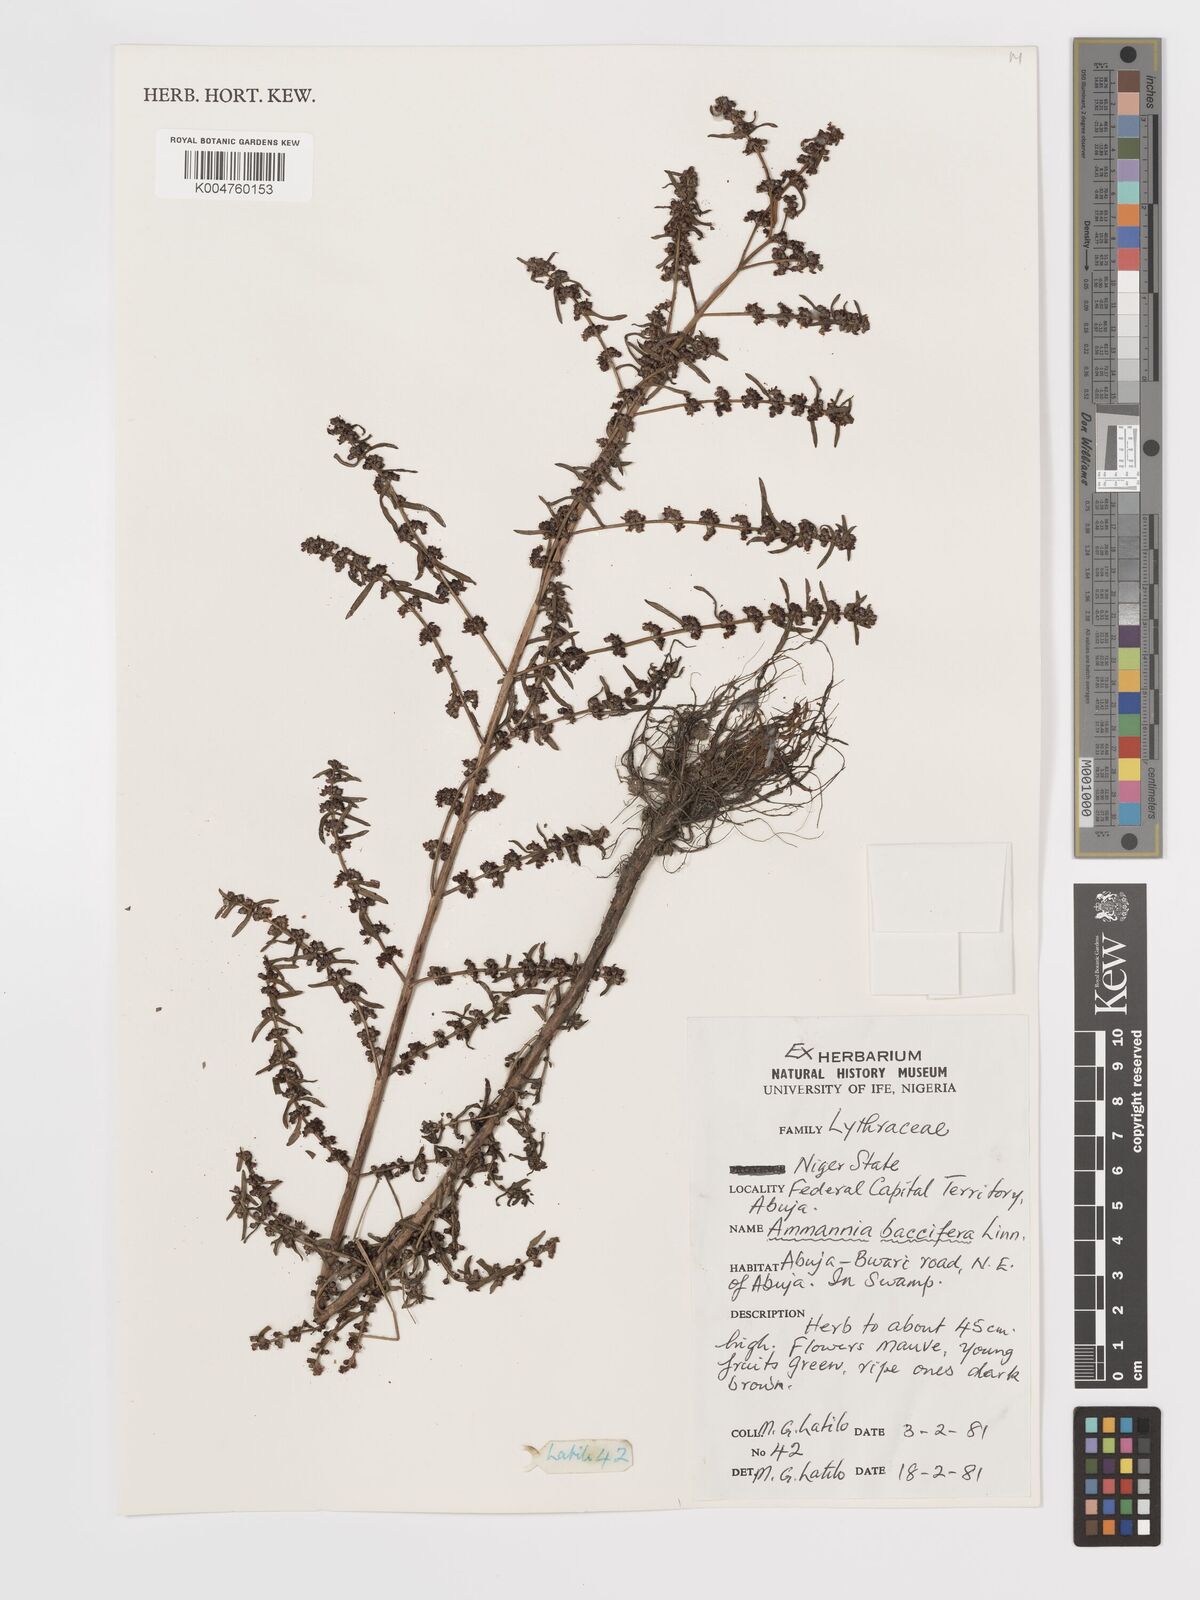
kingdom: Plantae
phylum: Tracheophyta
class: Magnoliopsida
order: Myrtales
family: Lythraceae
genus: Ammannia
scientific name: Ammannia
